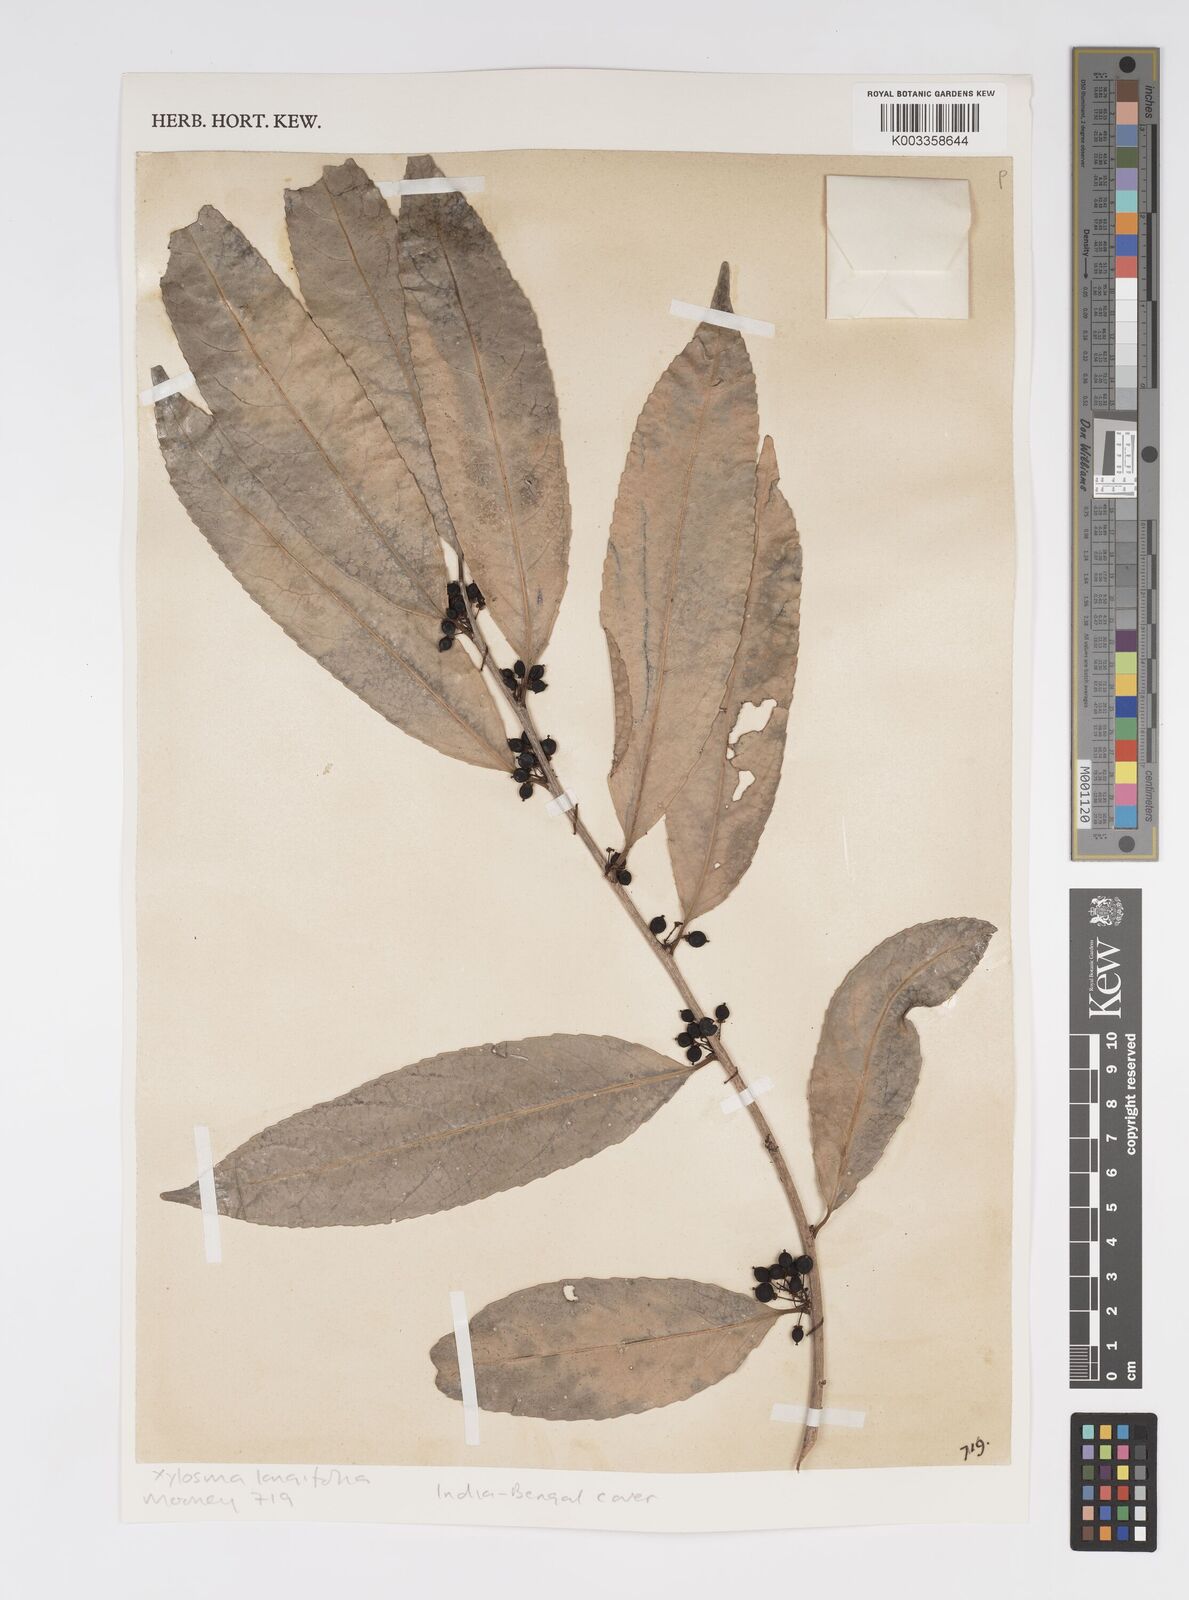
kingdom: Plantae
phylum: Tracheophyta
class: Magnoliopsida
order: Malpighiales
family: Salicaceae
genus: Xylosma
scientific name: Xylosma longifolia
